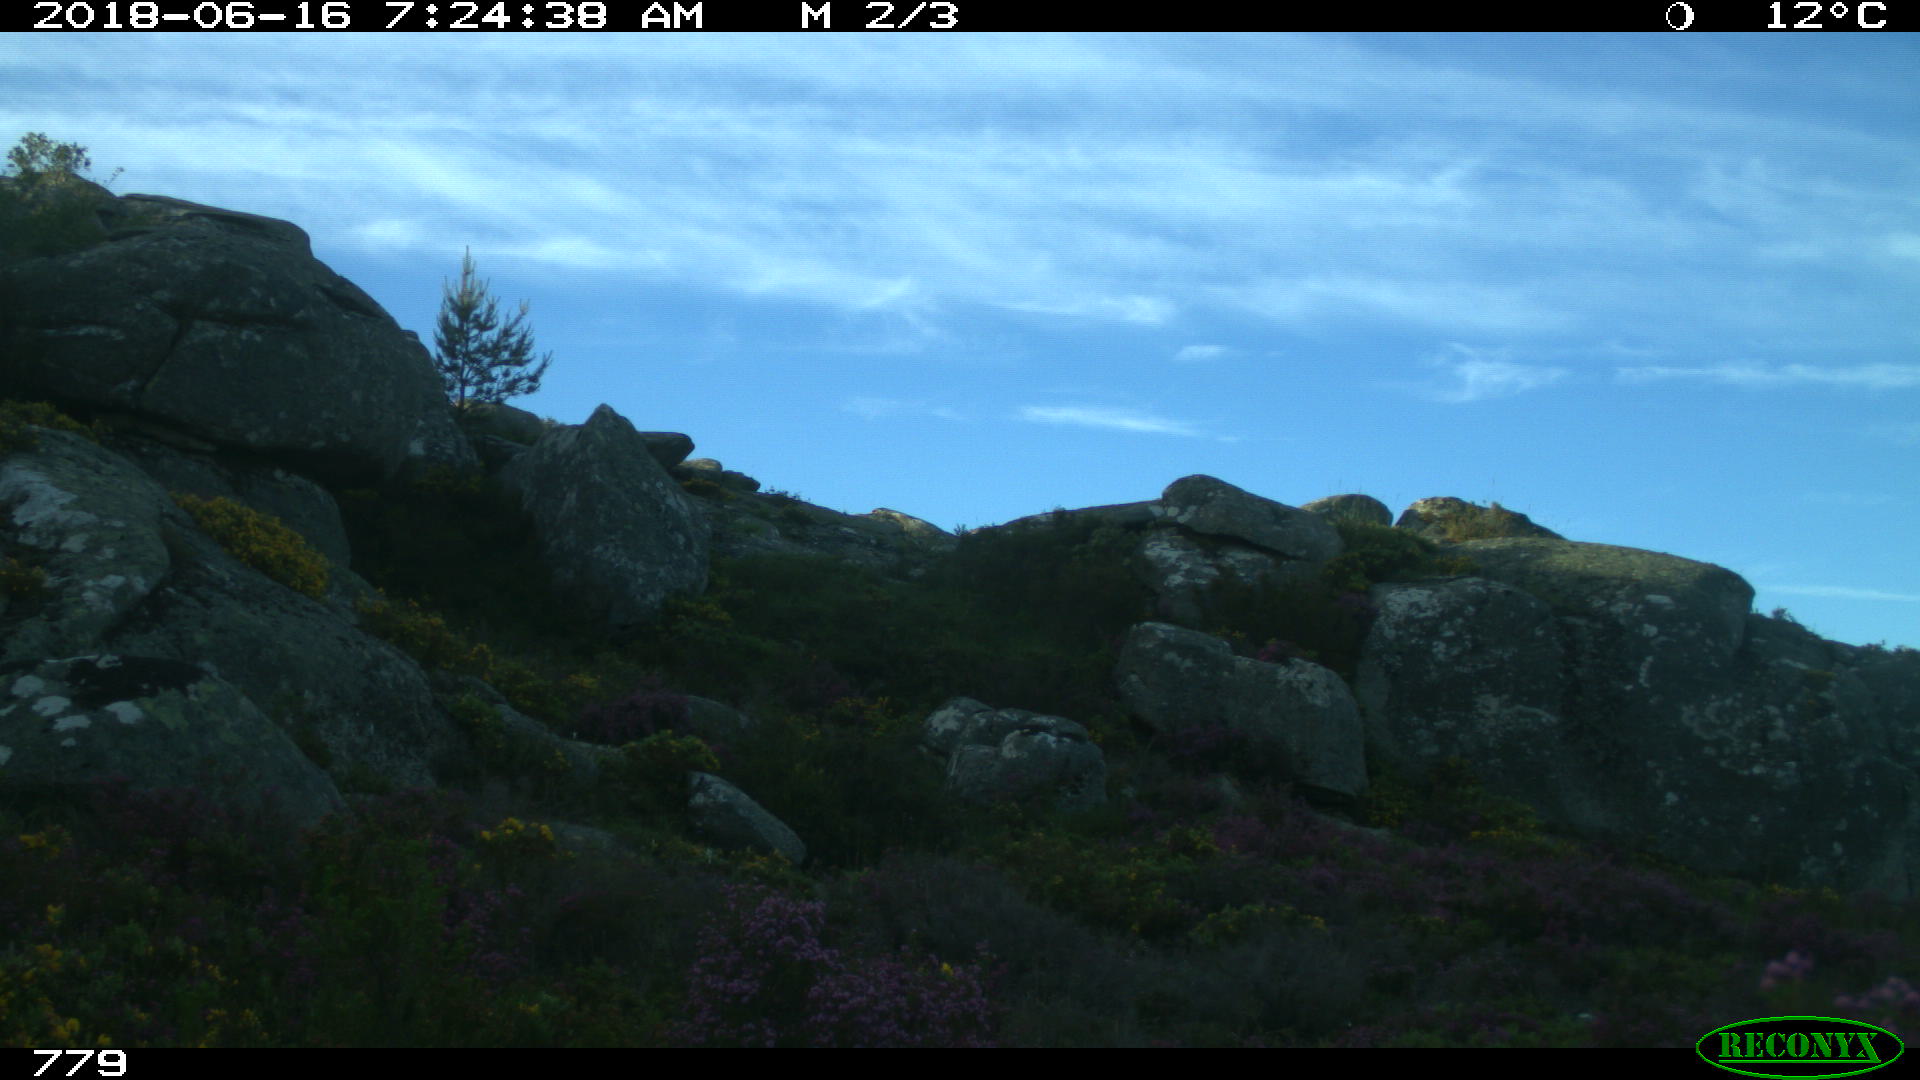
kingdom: Animalia
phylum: Chordata
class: Mammalia
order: Perissodactyla
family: Equidae
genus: Equus
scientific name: Equus caballus
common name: Horse
